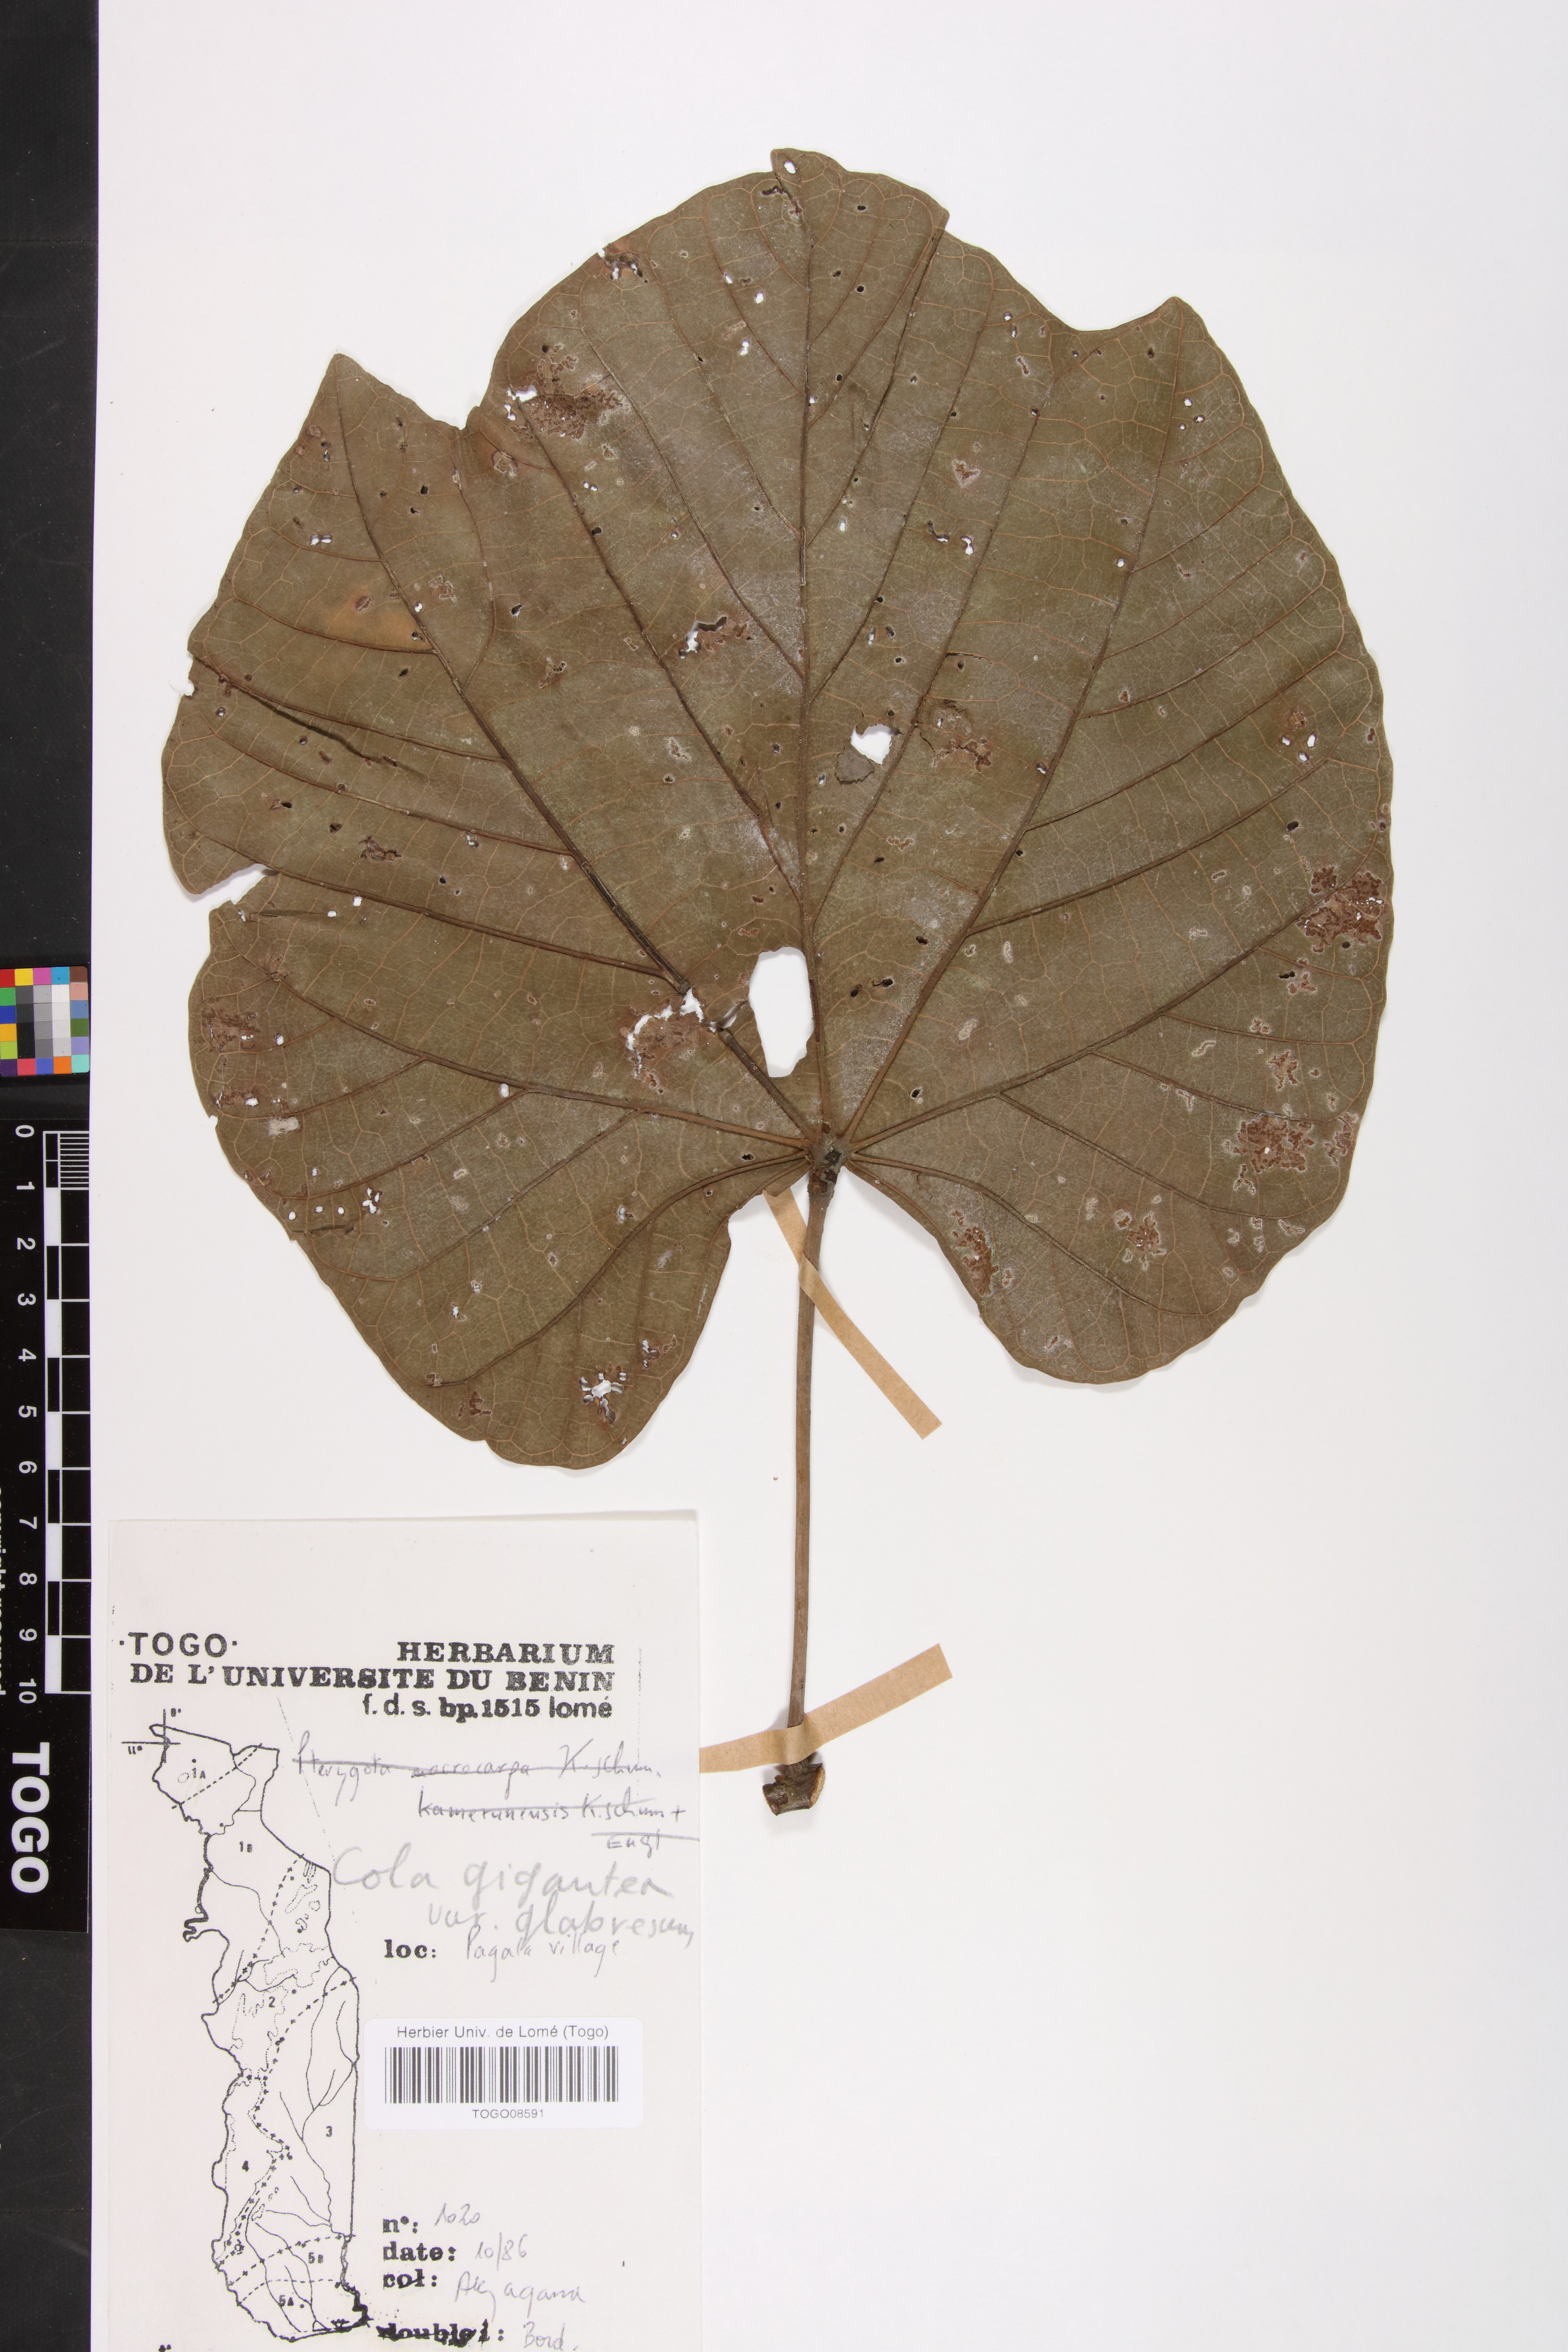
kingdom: Plantae
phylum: Tracheophyta
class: Magnoliopsida
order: Malvales
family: Malvaceae
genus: Cola
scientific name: Cola gigantea
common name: Giant cola
